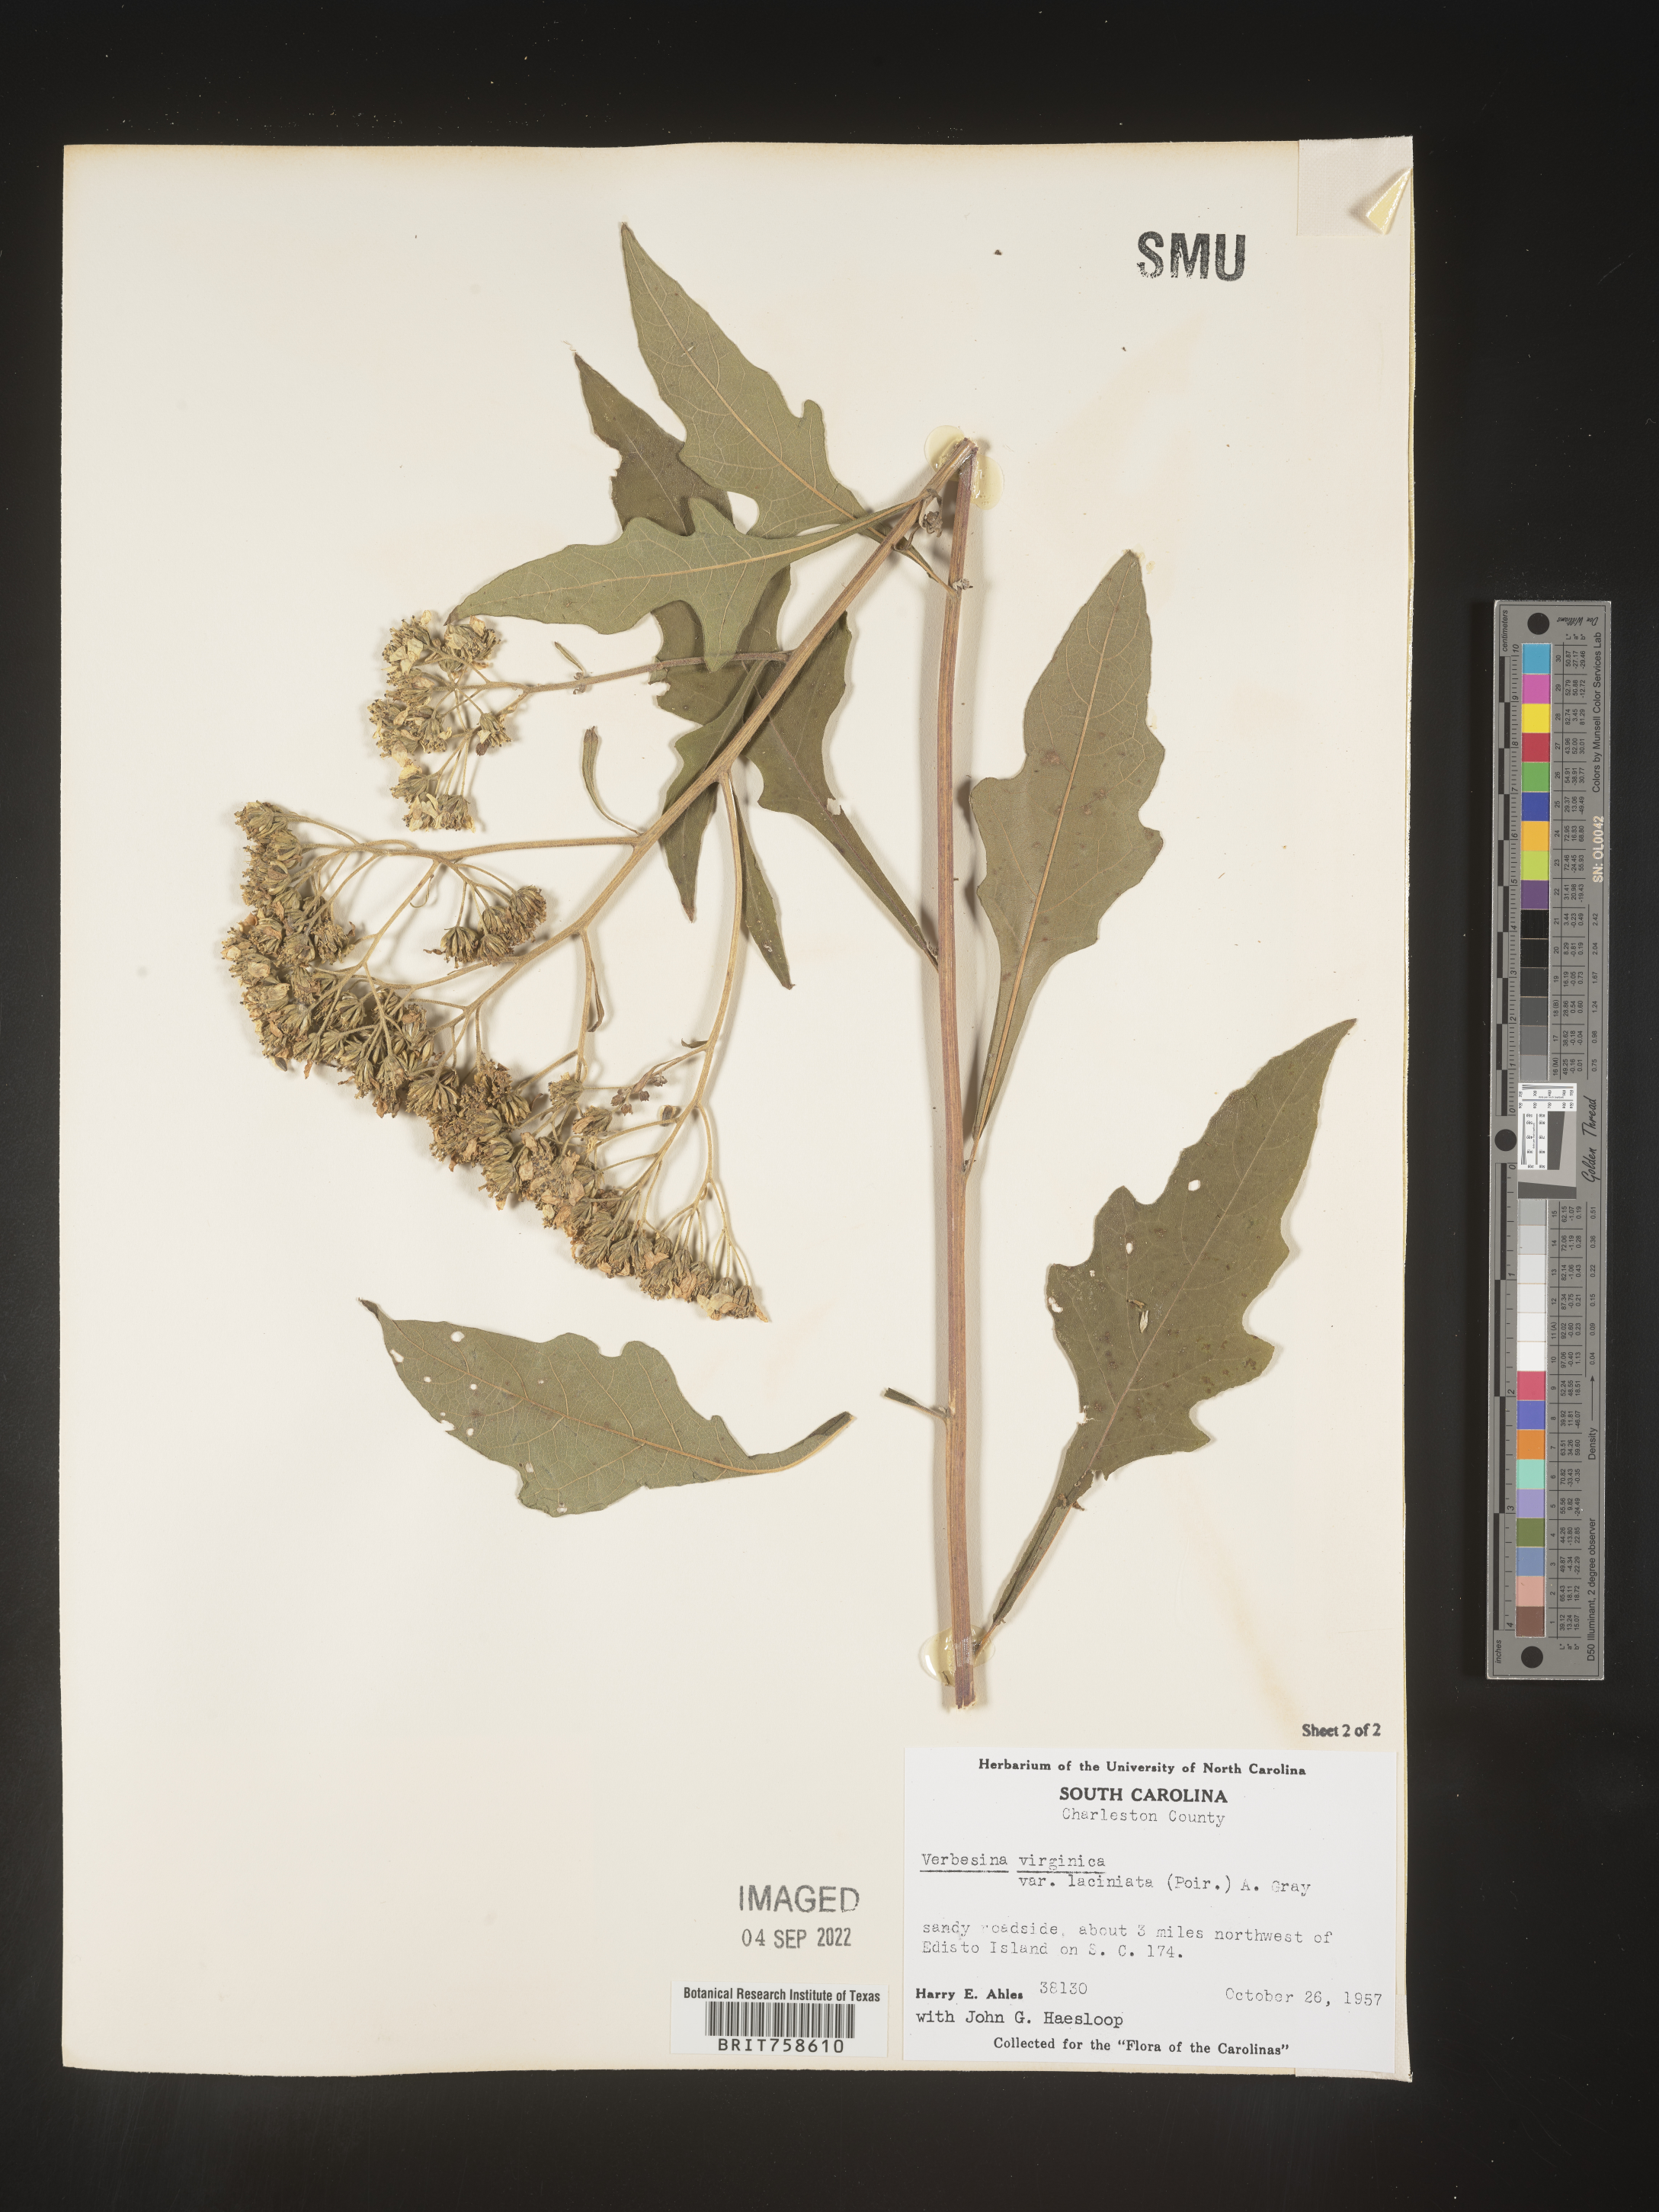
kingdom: Plantae
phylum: Tracheophyta
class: Magnoliopsida
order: Asterales
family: Asteraceae
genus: Verbesina
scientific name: Verbesina virginica
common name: Frostweed
